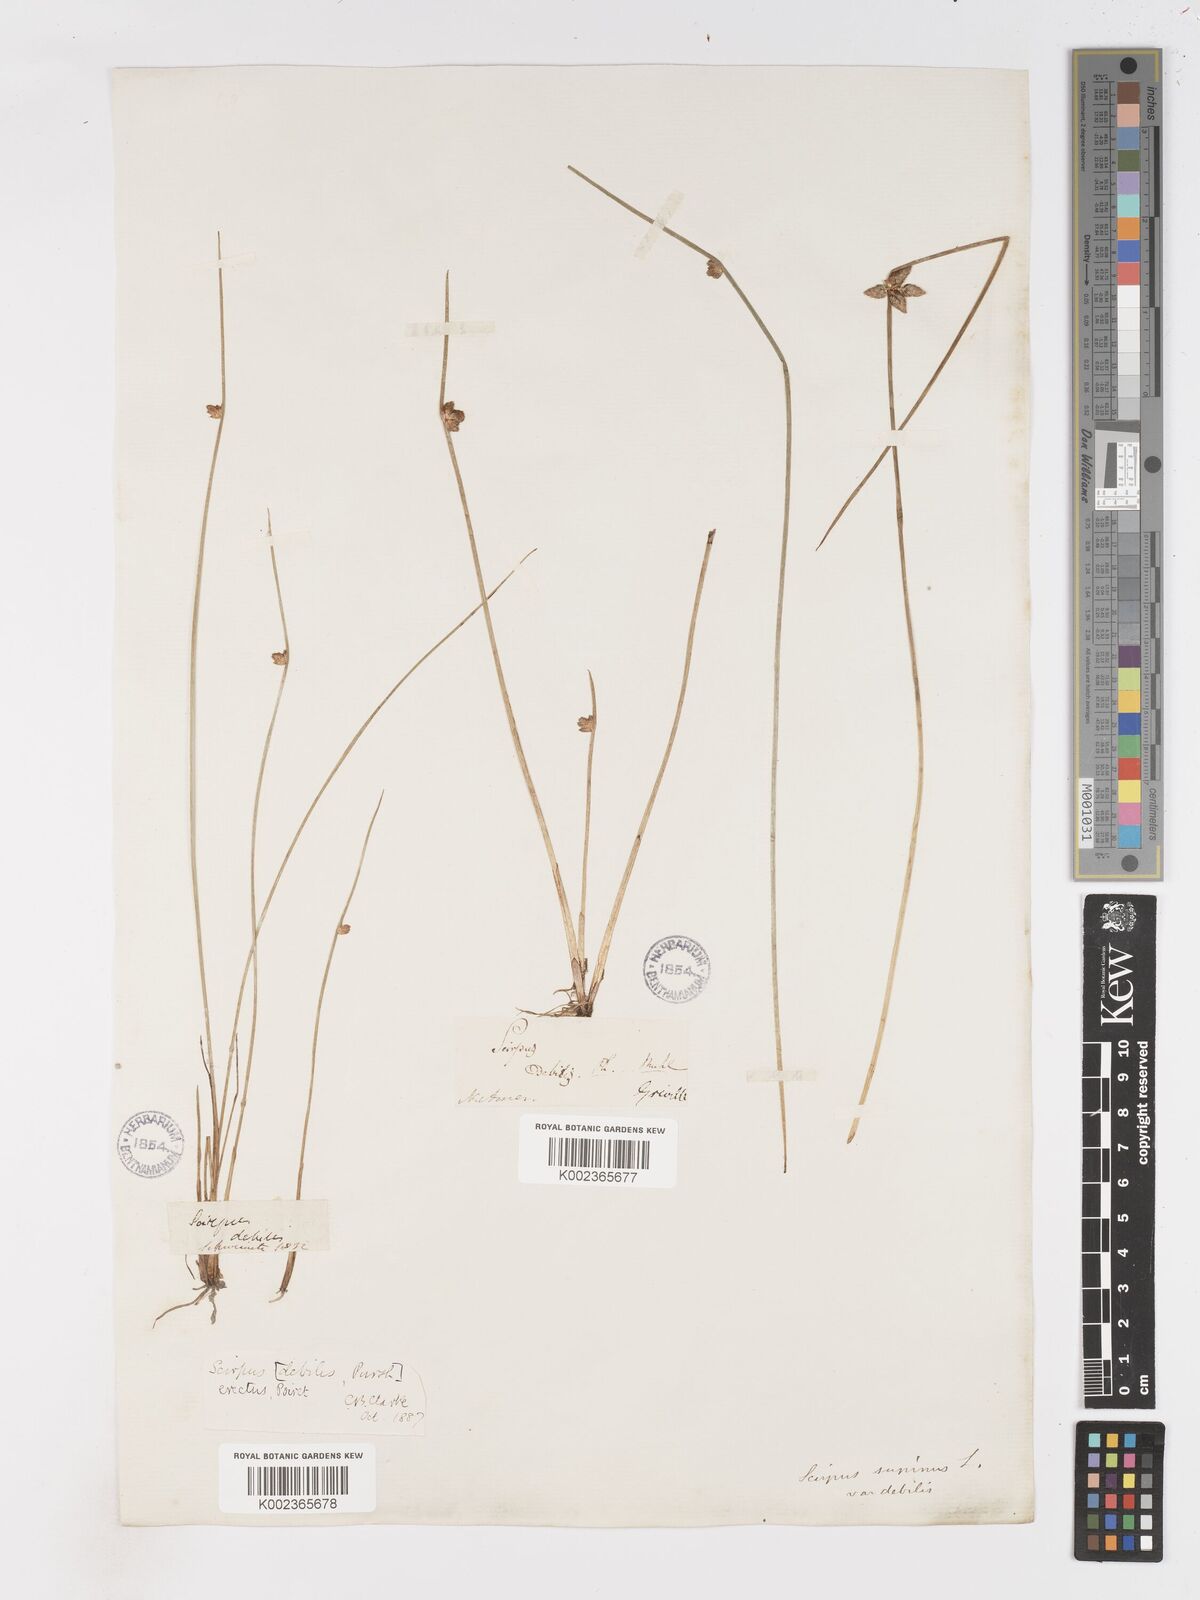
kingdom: Plantae
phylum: Tracheophyta
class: Liliopsida
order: Poales
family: Cyperaceae
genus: Schoenoplectiella
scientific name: Schoenoplectiella purshiana
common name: Weak-stalked bulrush
